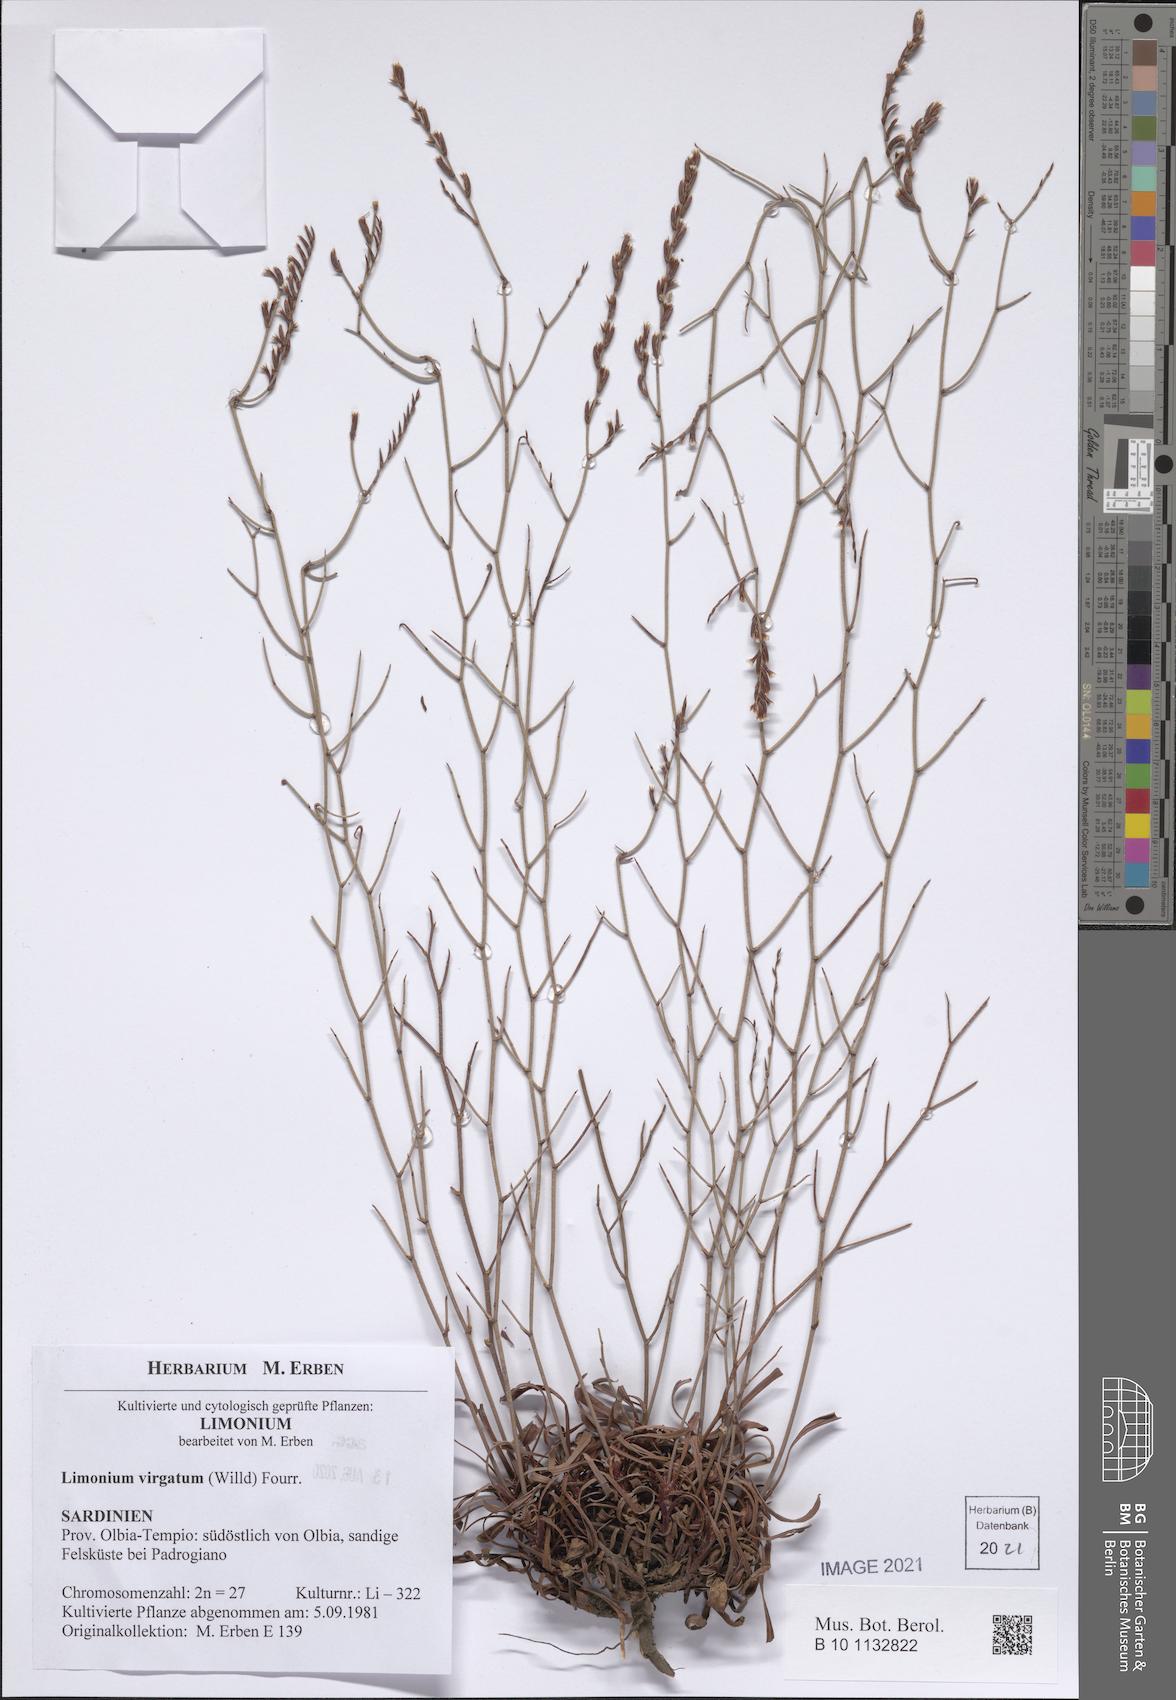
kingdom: Plantae
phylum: Tracheophyta
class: Magnoliopsida
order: Caryophyllales
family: Plumbaginaceae
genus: Limonium
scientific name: Limonium virgatum
